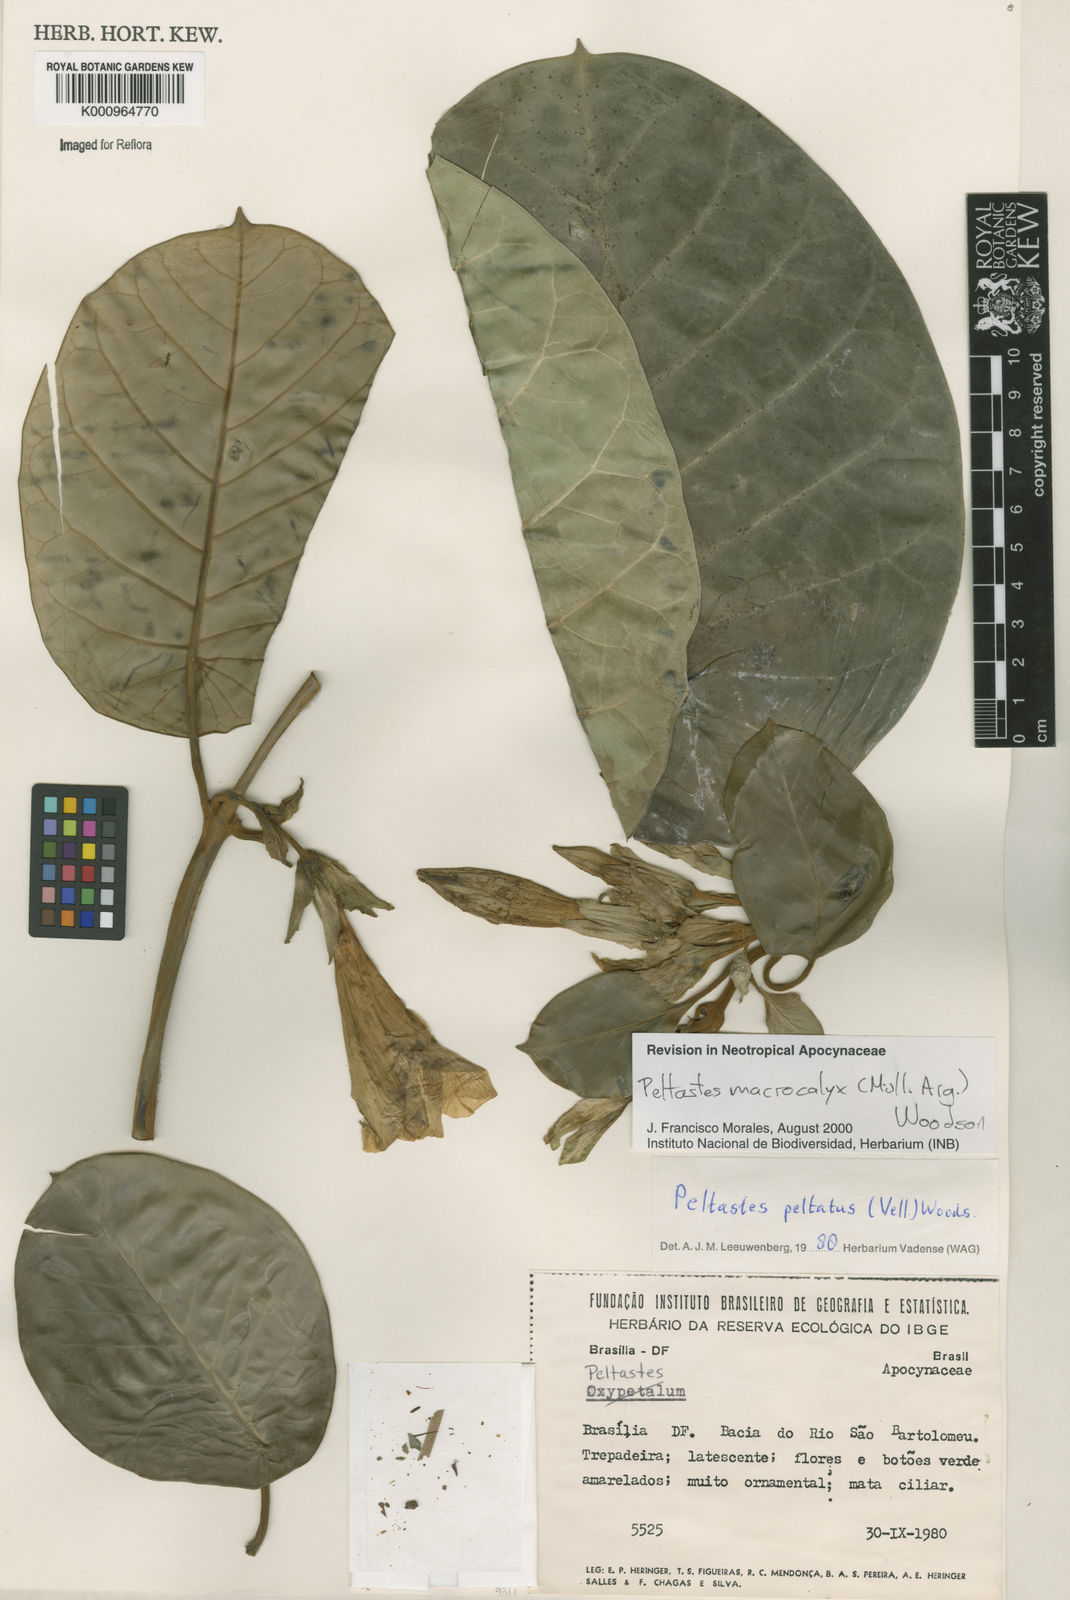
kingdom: Plantae
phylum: Tracheophyta
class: Magnoliopsida
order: Gentianales
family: Apocynaceae
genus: Macropharynx
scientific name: Macropharynx
